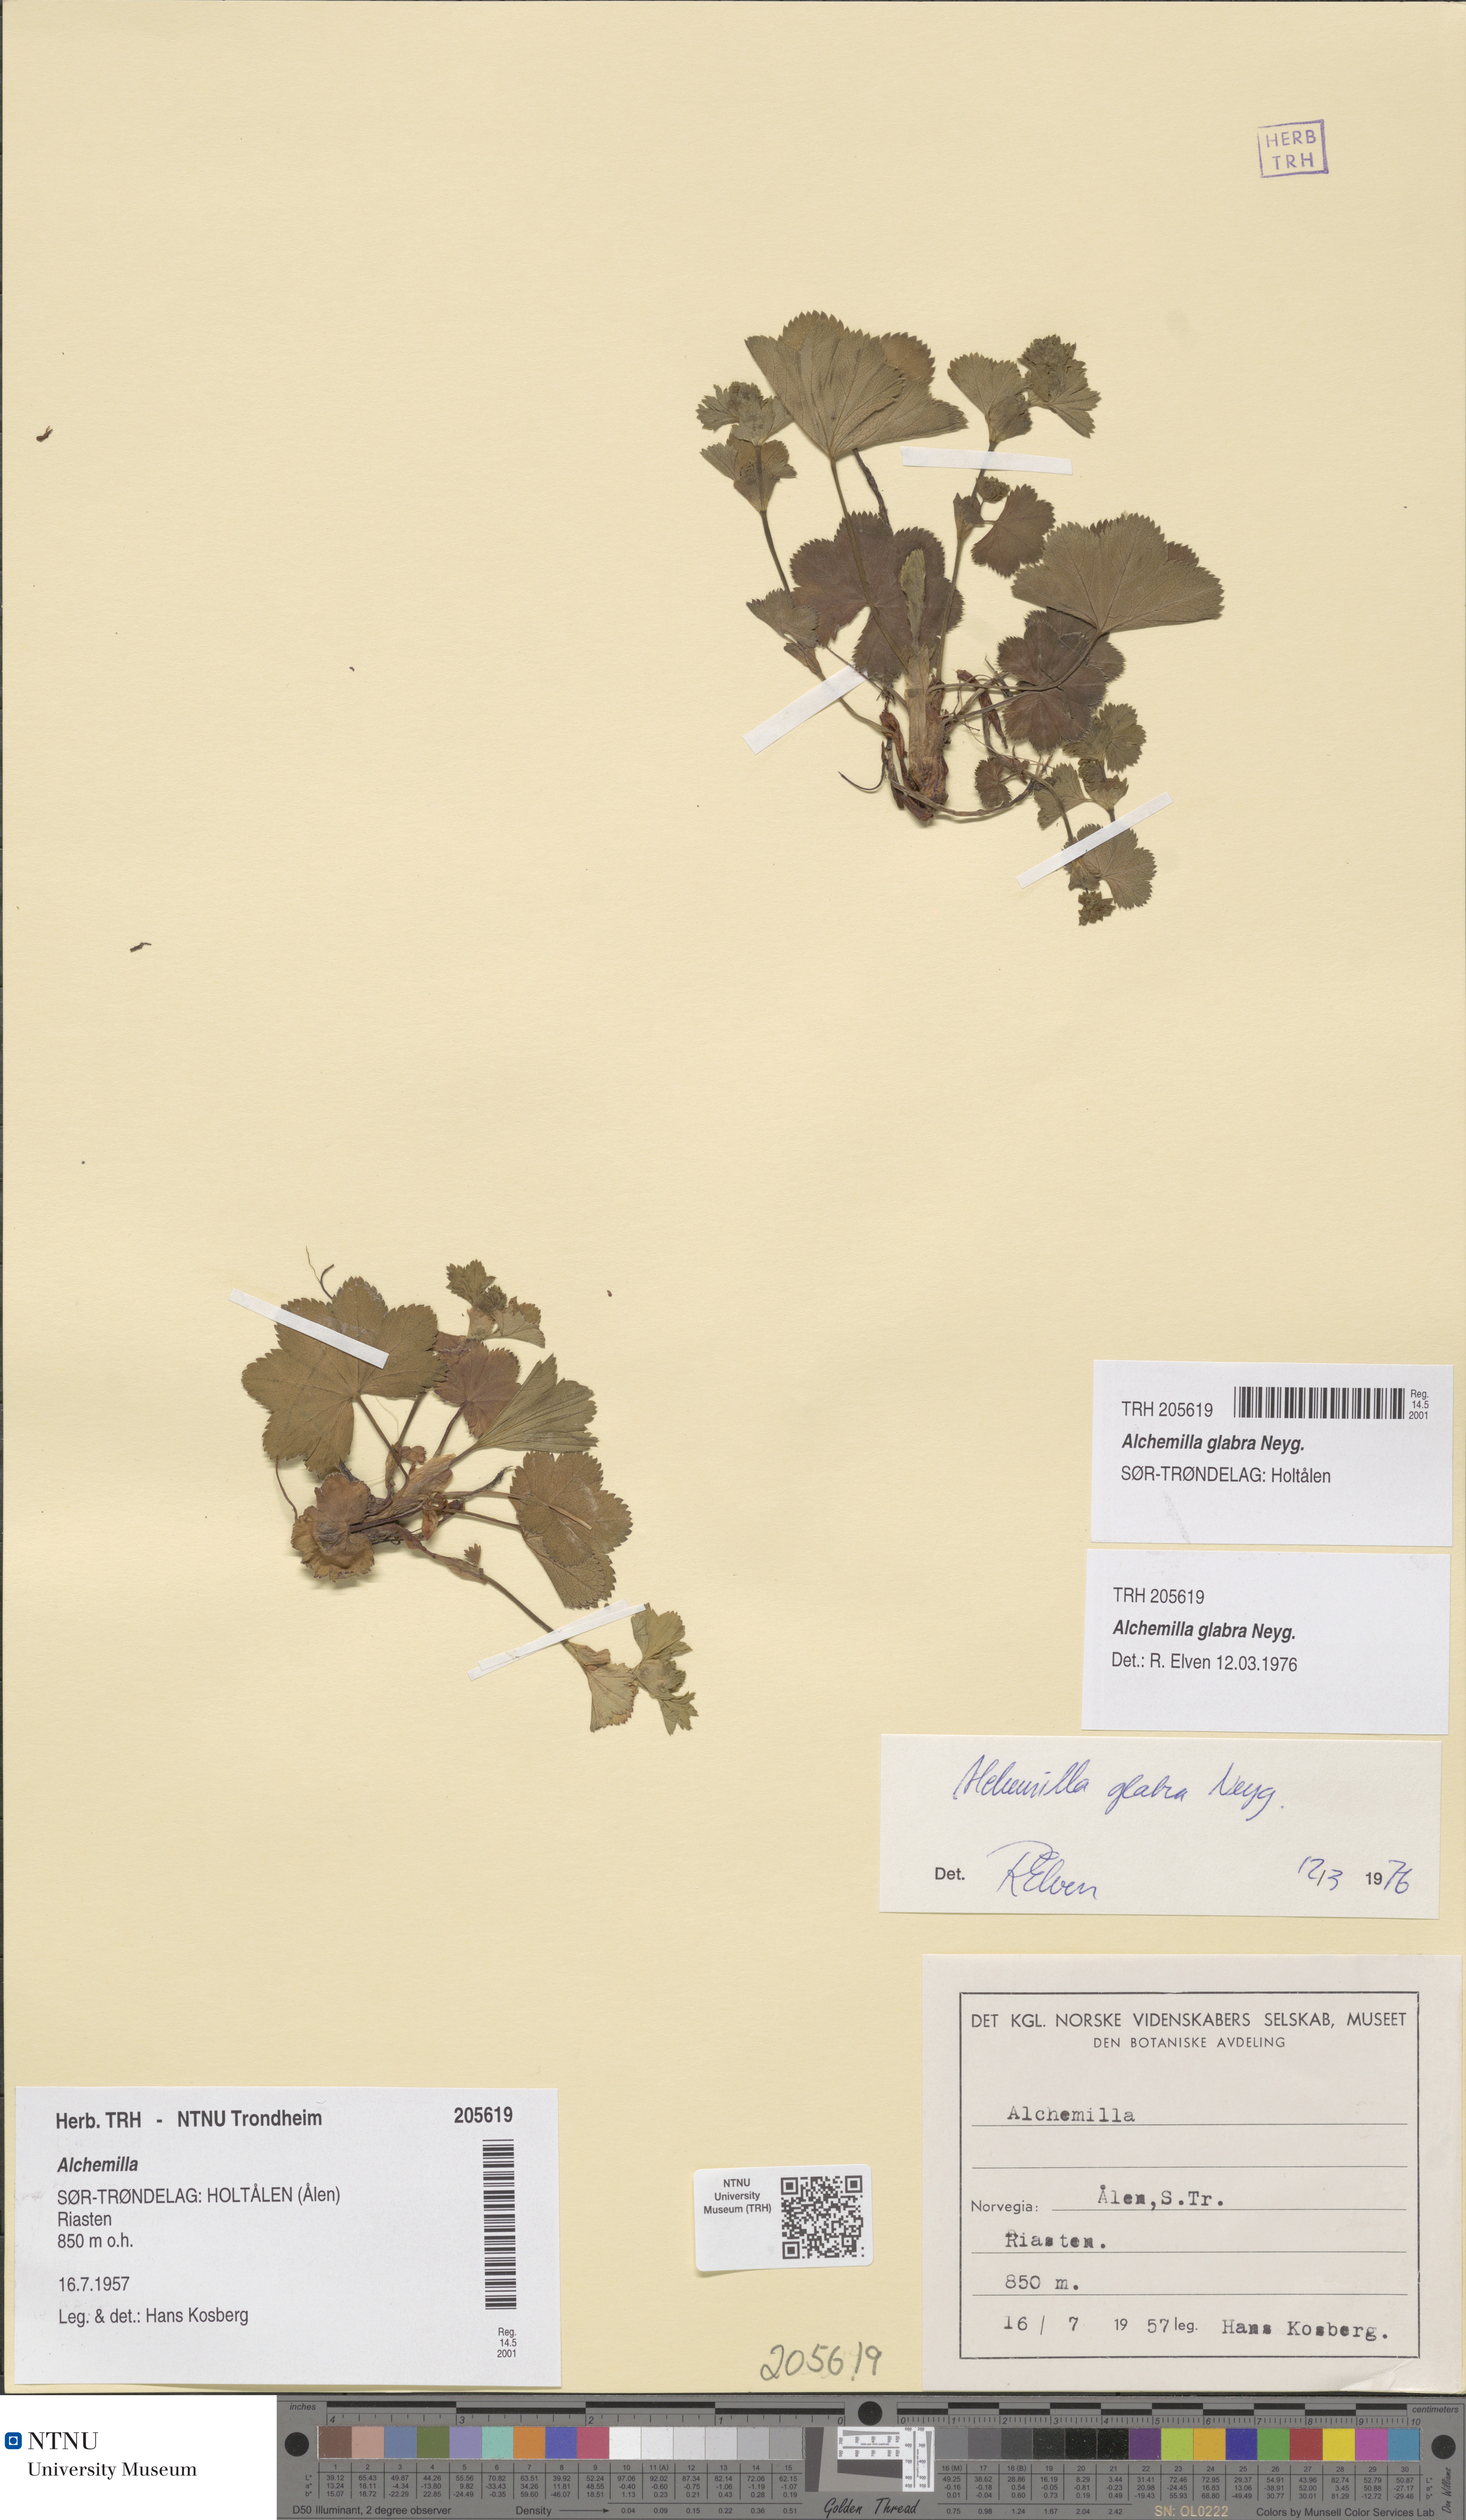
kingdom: Plantae
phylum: Tracheophyta
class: Magnoliopsida
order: Rosales
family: Rosaceae
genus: Alchemilla
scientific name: Alchemilla glabra
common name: Smooth lady's-mantle
